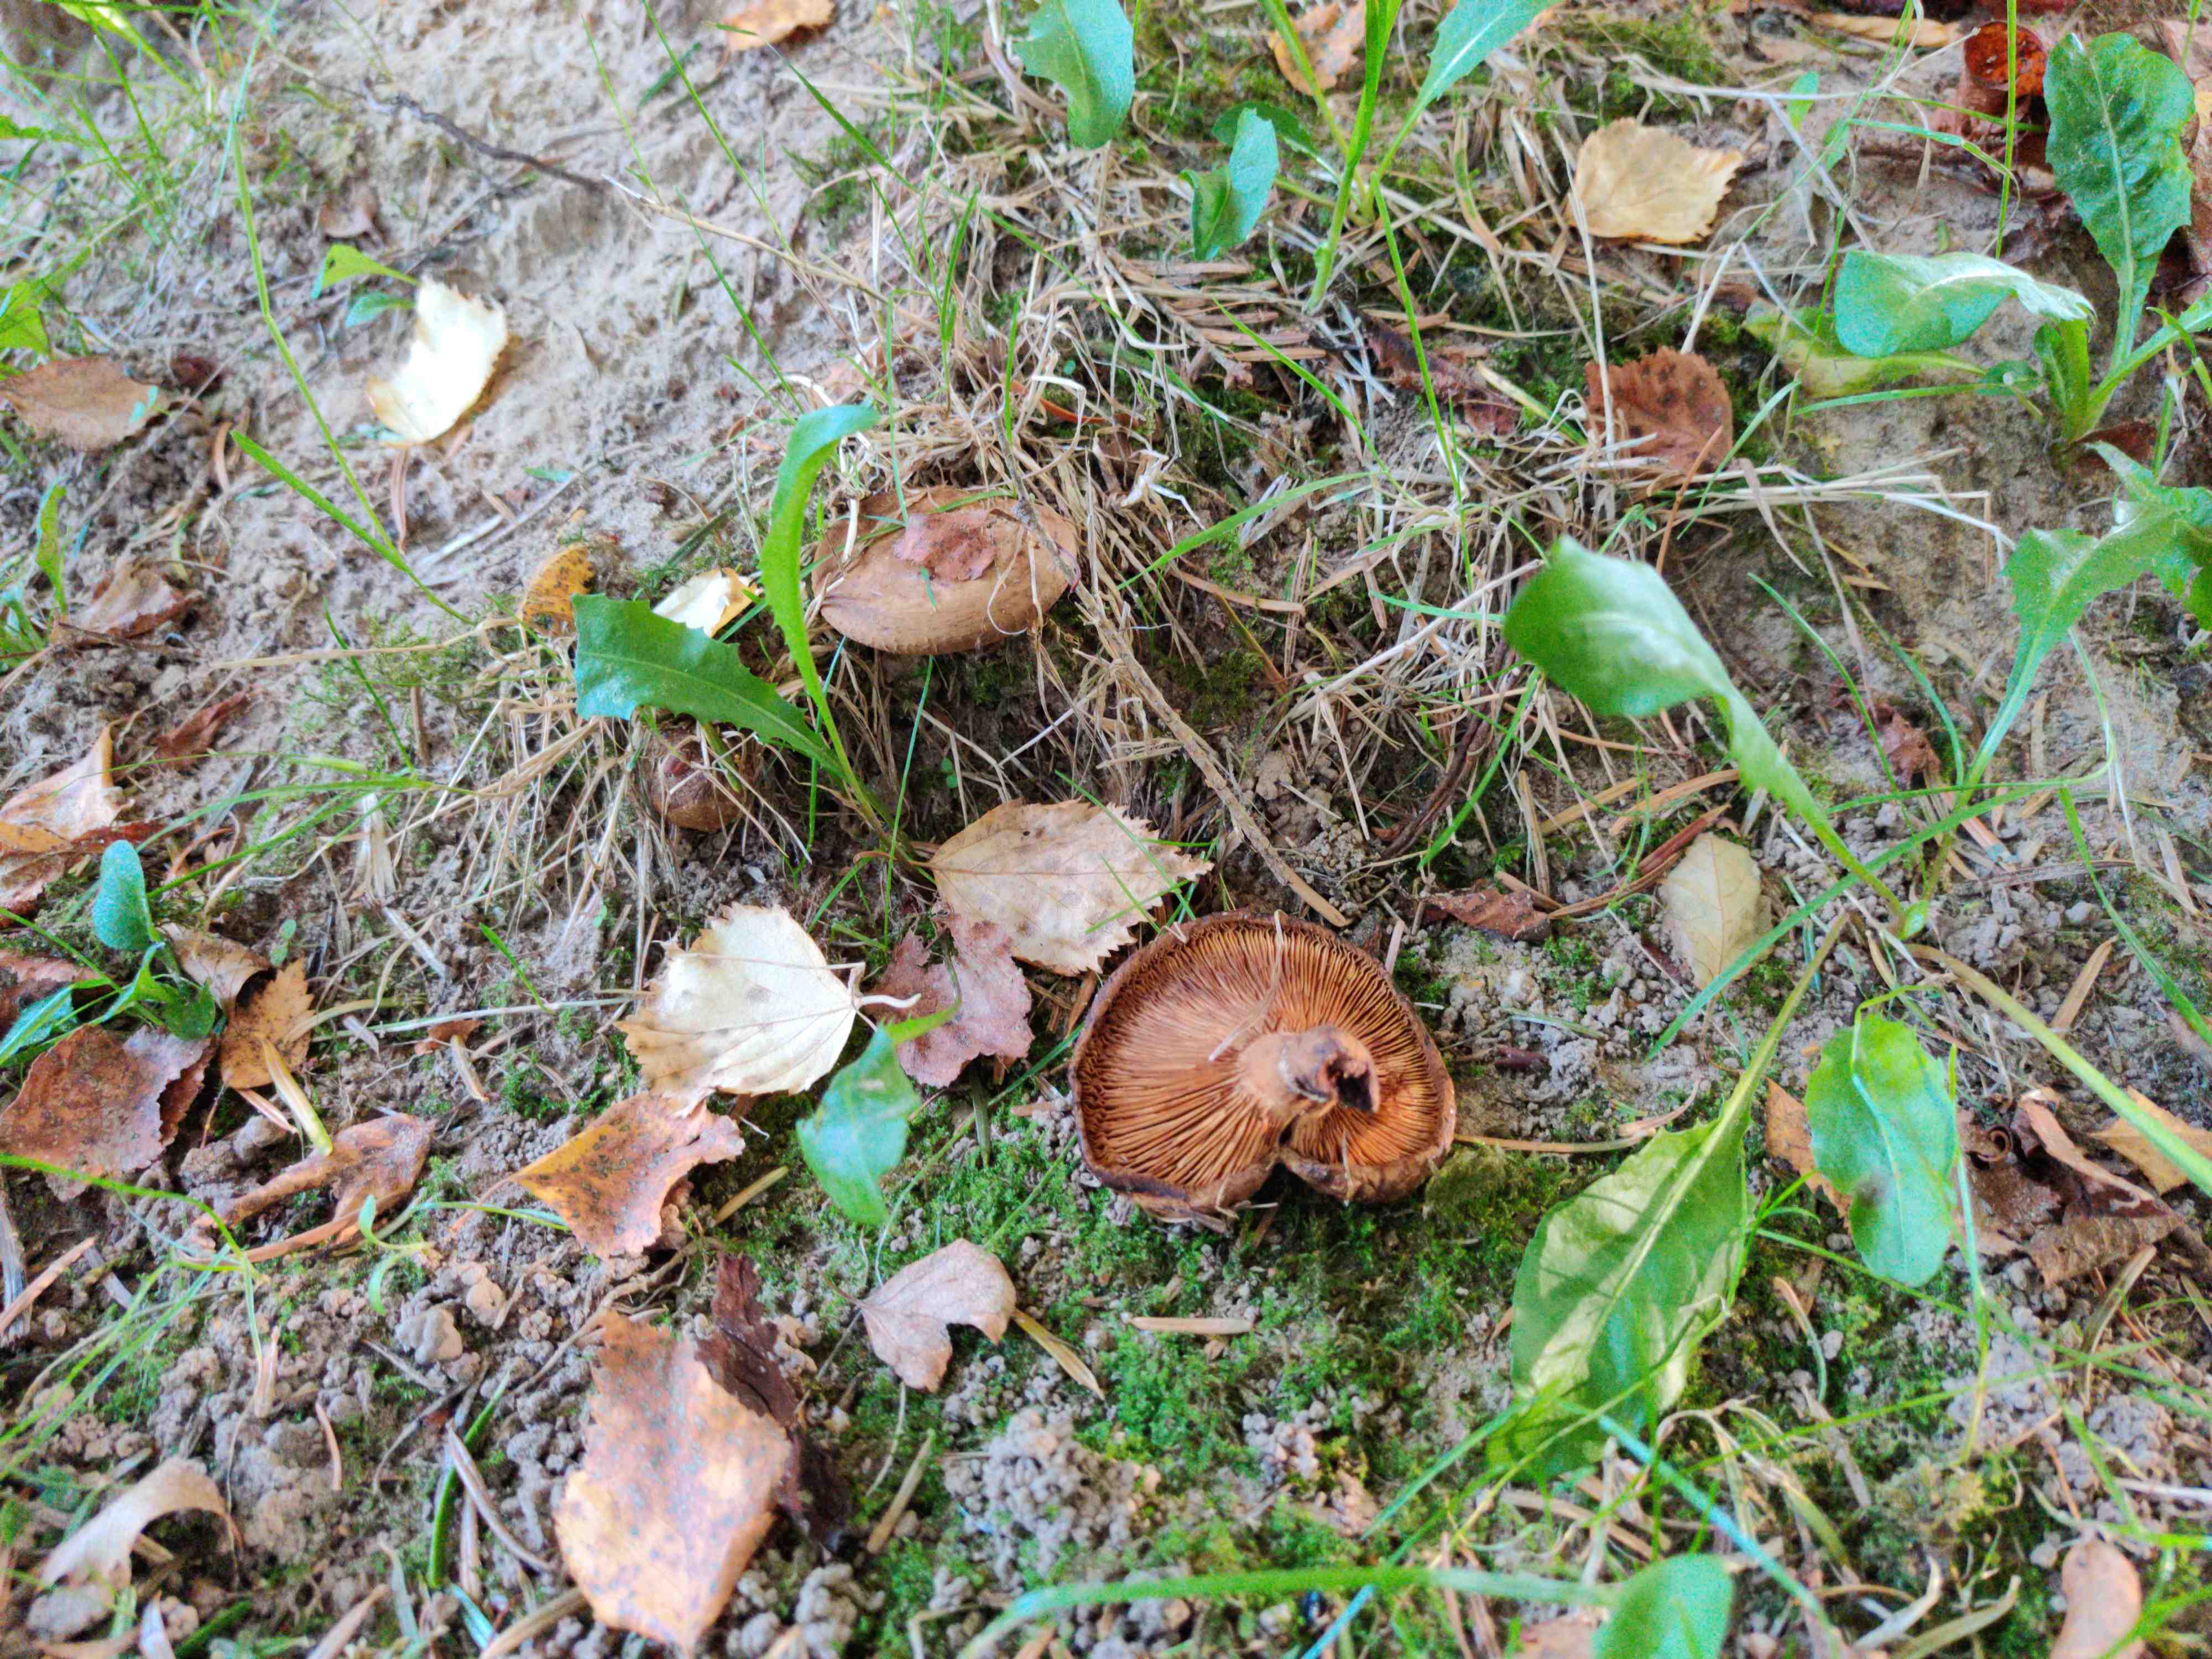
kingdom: Fungi
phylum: Basidiomycota
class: Agaricomycetes
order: Boletales
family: Paxillaceae
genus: Paxillus
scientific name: Paxillus involutus
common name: almindelig netbladhat
